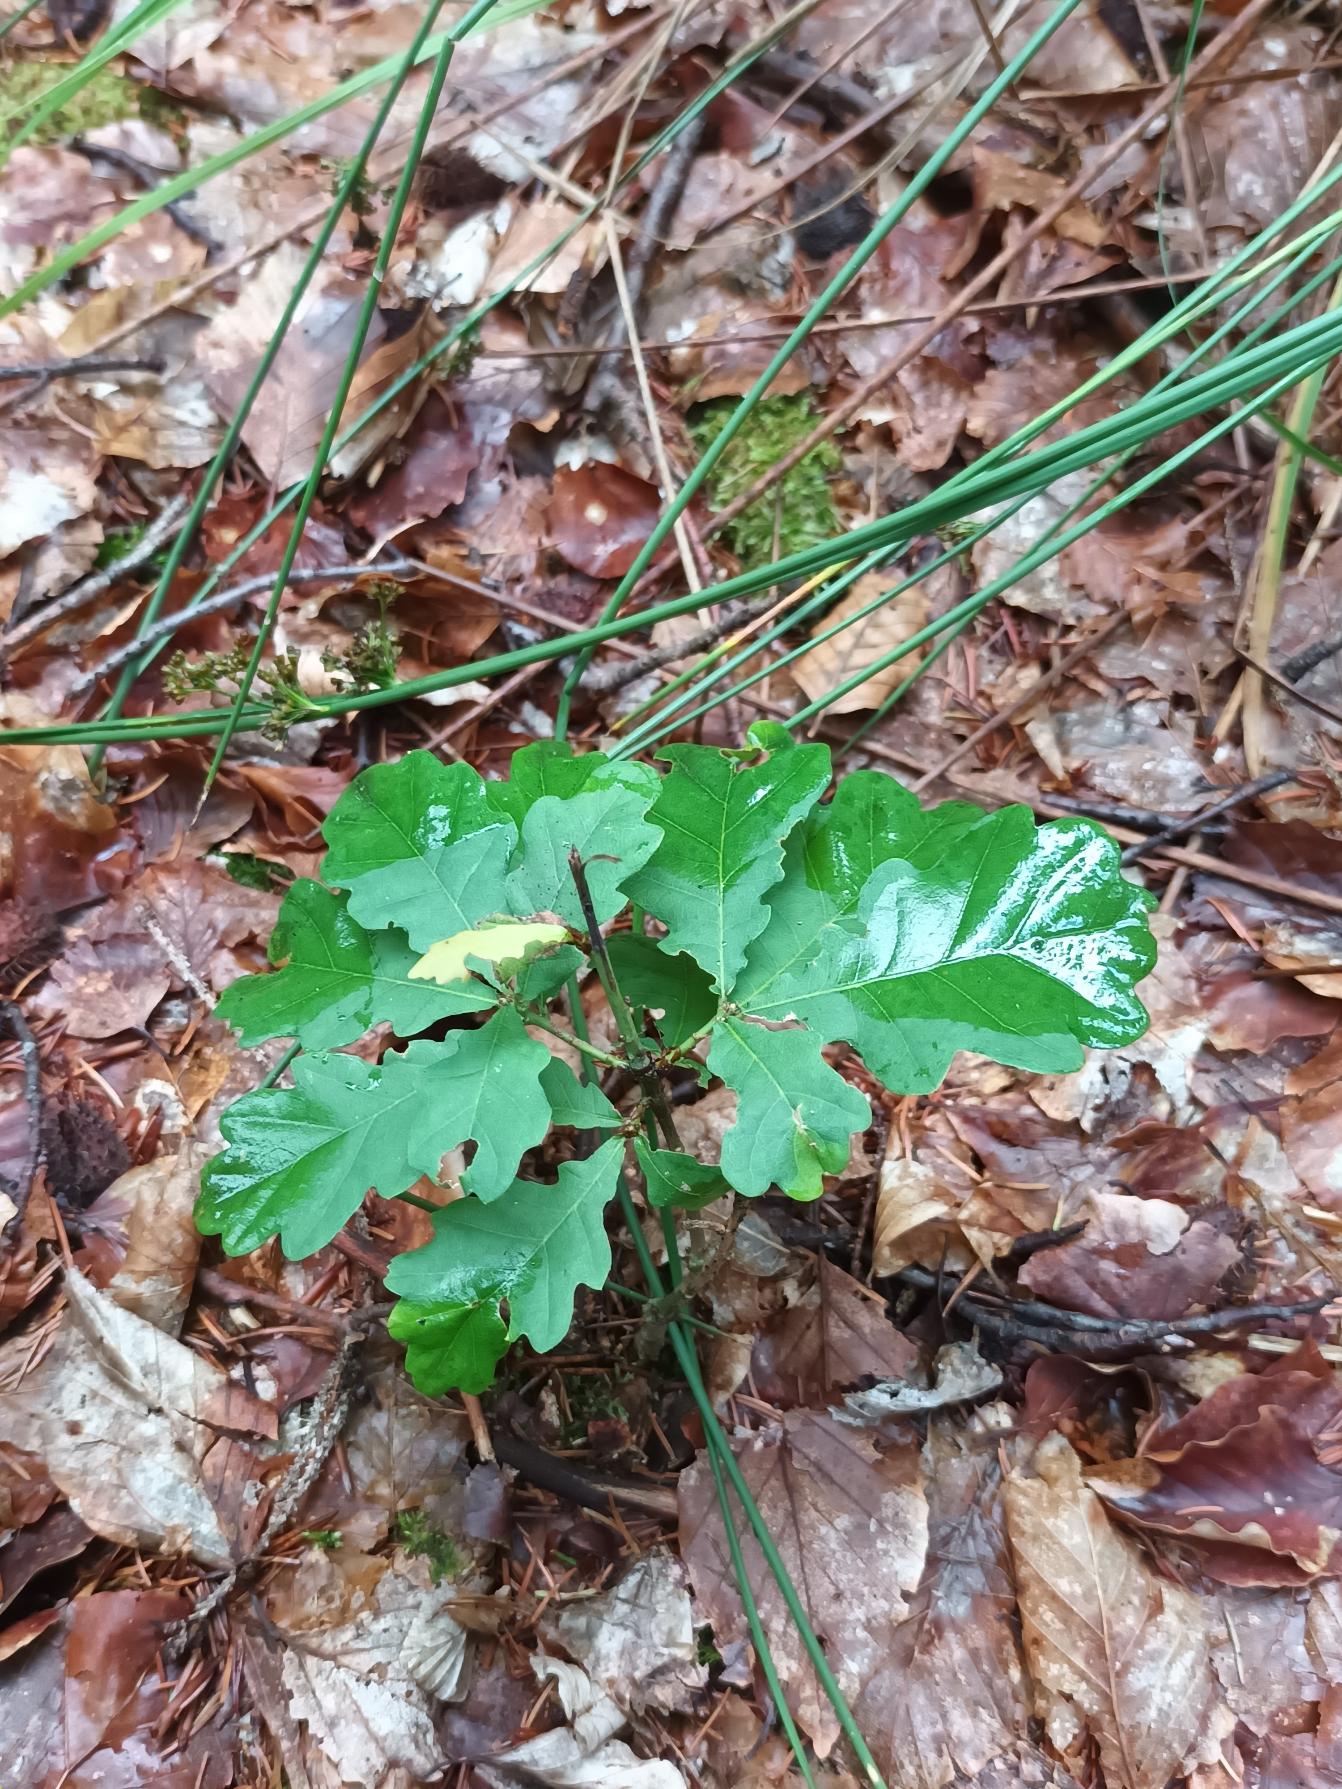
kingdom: Plantae
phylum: Tracheophyta
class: Magnoliopsida
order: Fagales
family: Fagaceae
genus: Quercus
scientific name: Quercus robur
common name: Stilk-eg/almindelig eg
